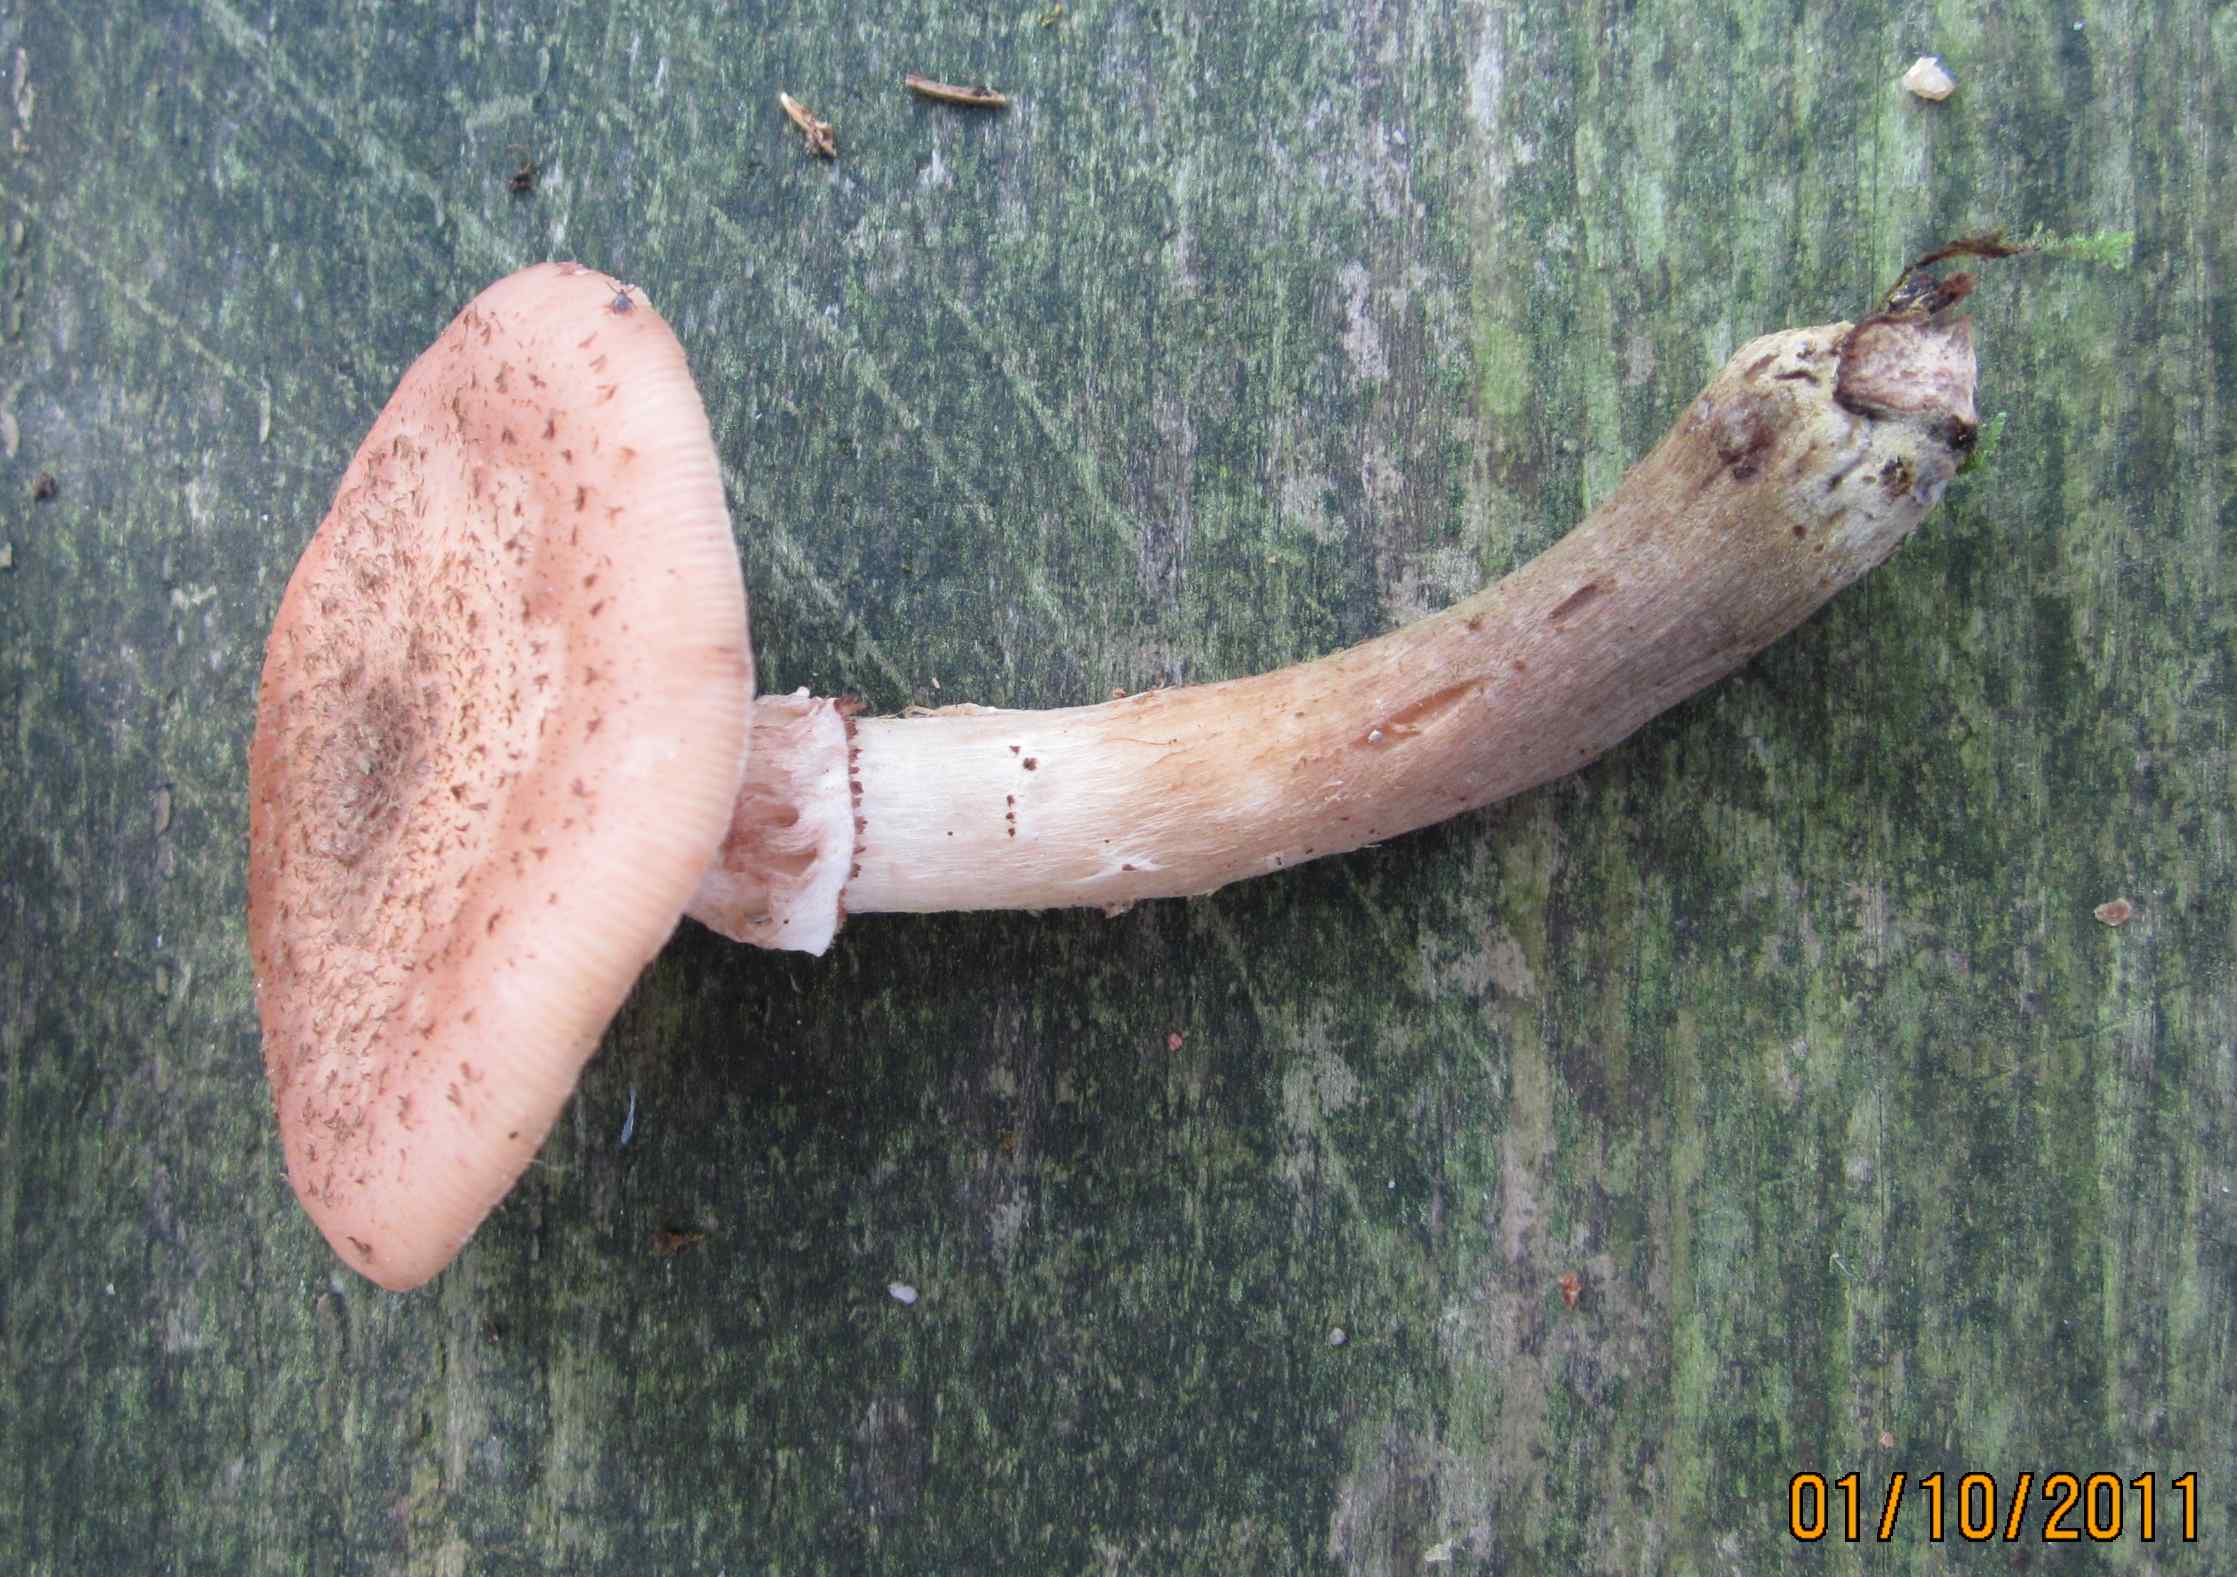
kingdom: Fungi
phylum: Basidiomycota
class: Agaricomycetes
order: Agaricales
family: Physalacriaceae
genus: Armillaria
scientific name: Armillaria ostoyae
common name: mørk honningsvamp
